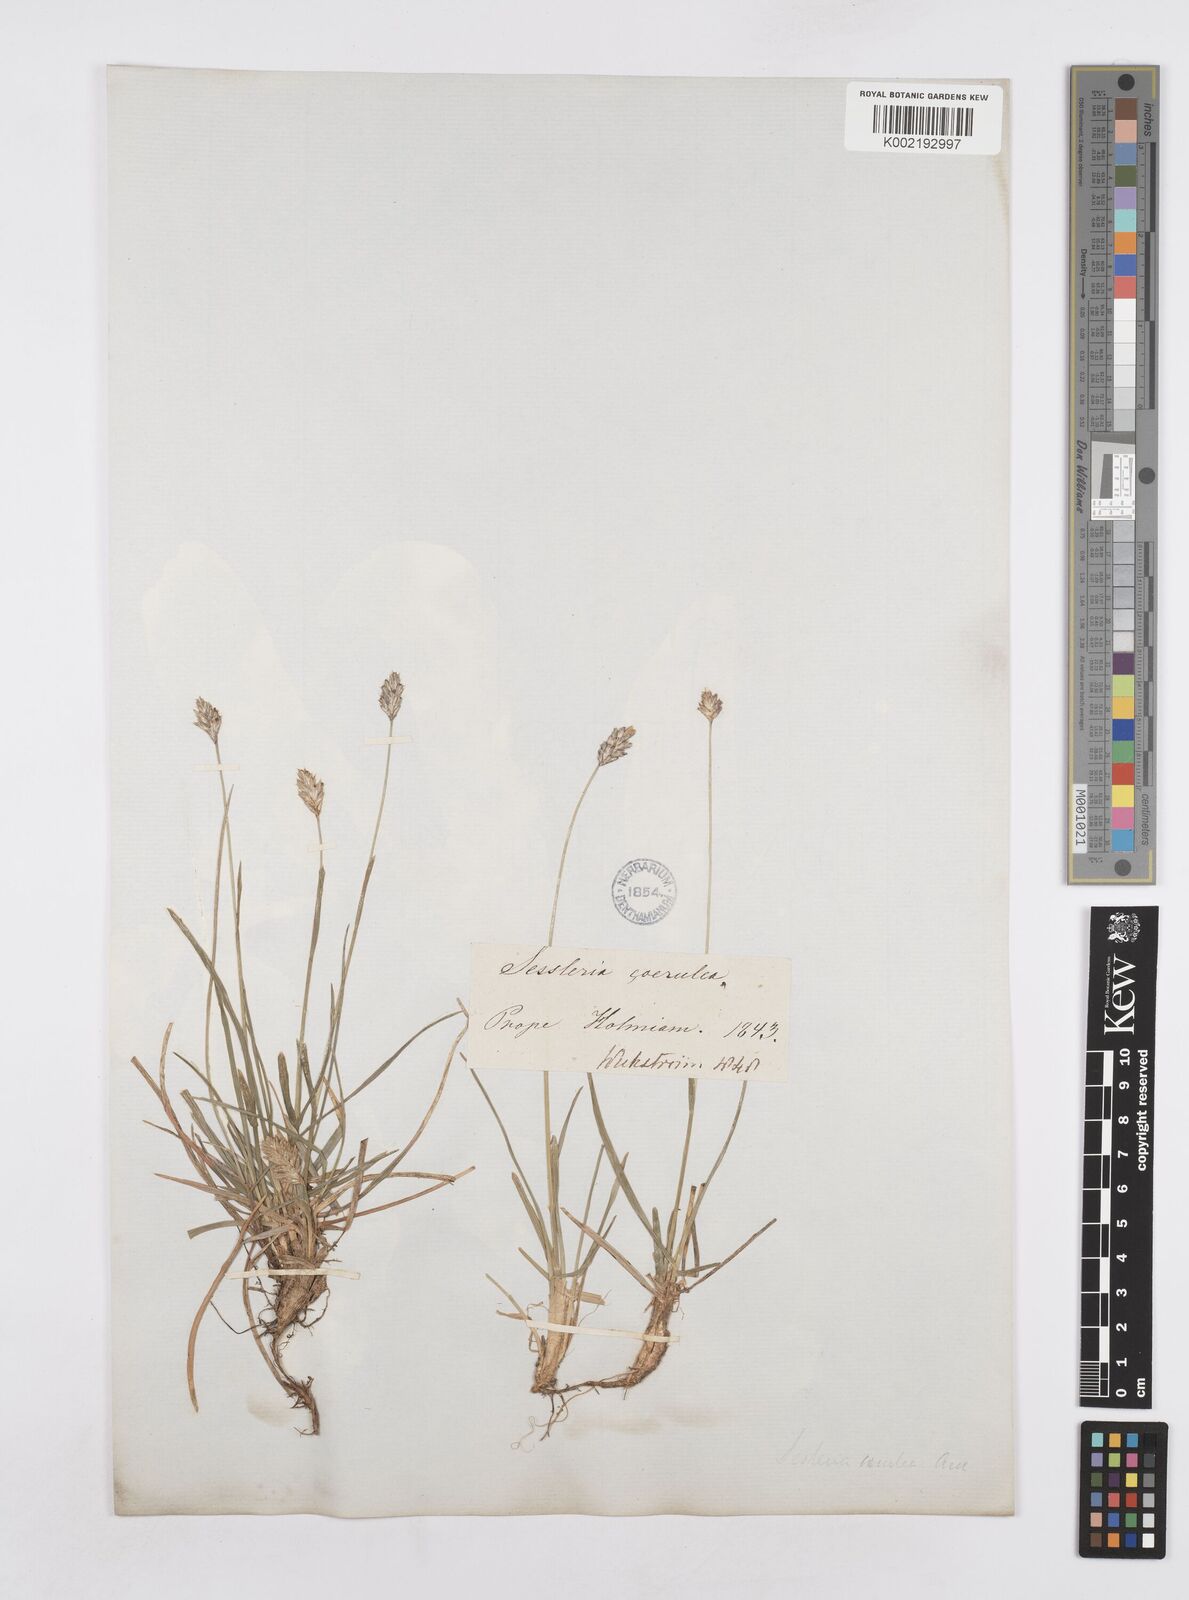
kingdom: Plantae
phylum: Tracheophyta
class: Liliopsida
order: Poales
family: Poaceae
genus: Sesleria
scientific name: Sesleria caerulea
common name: Blue moor-grass
